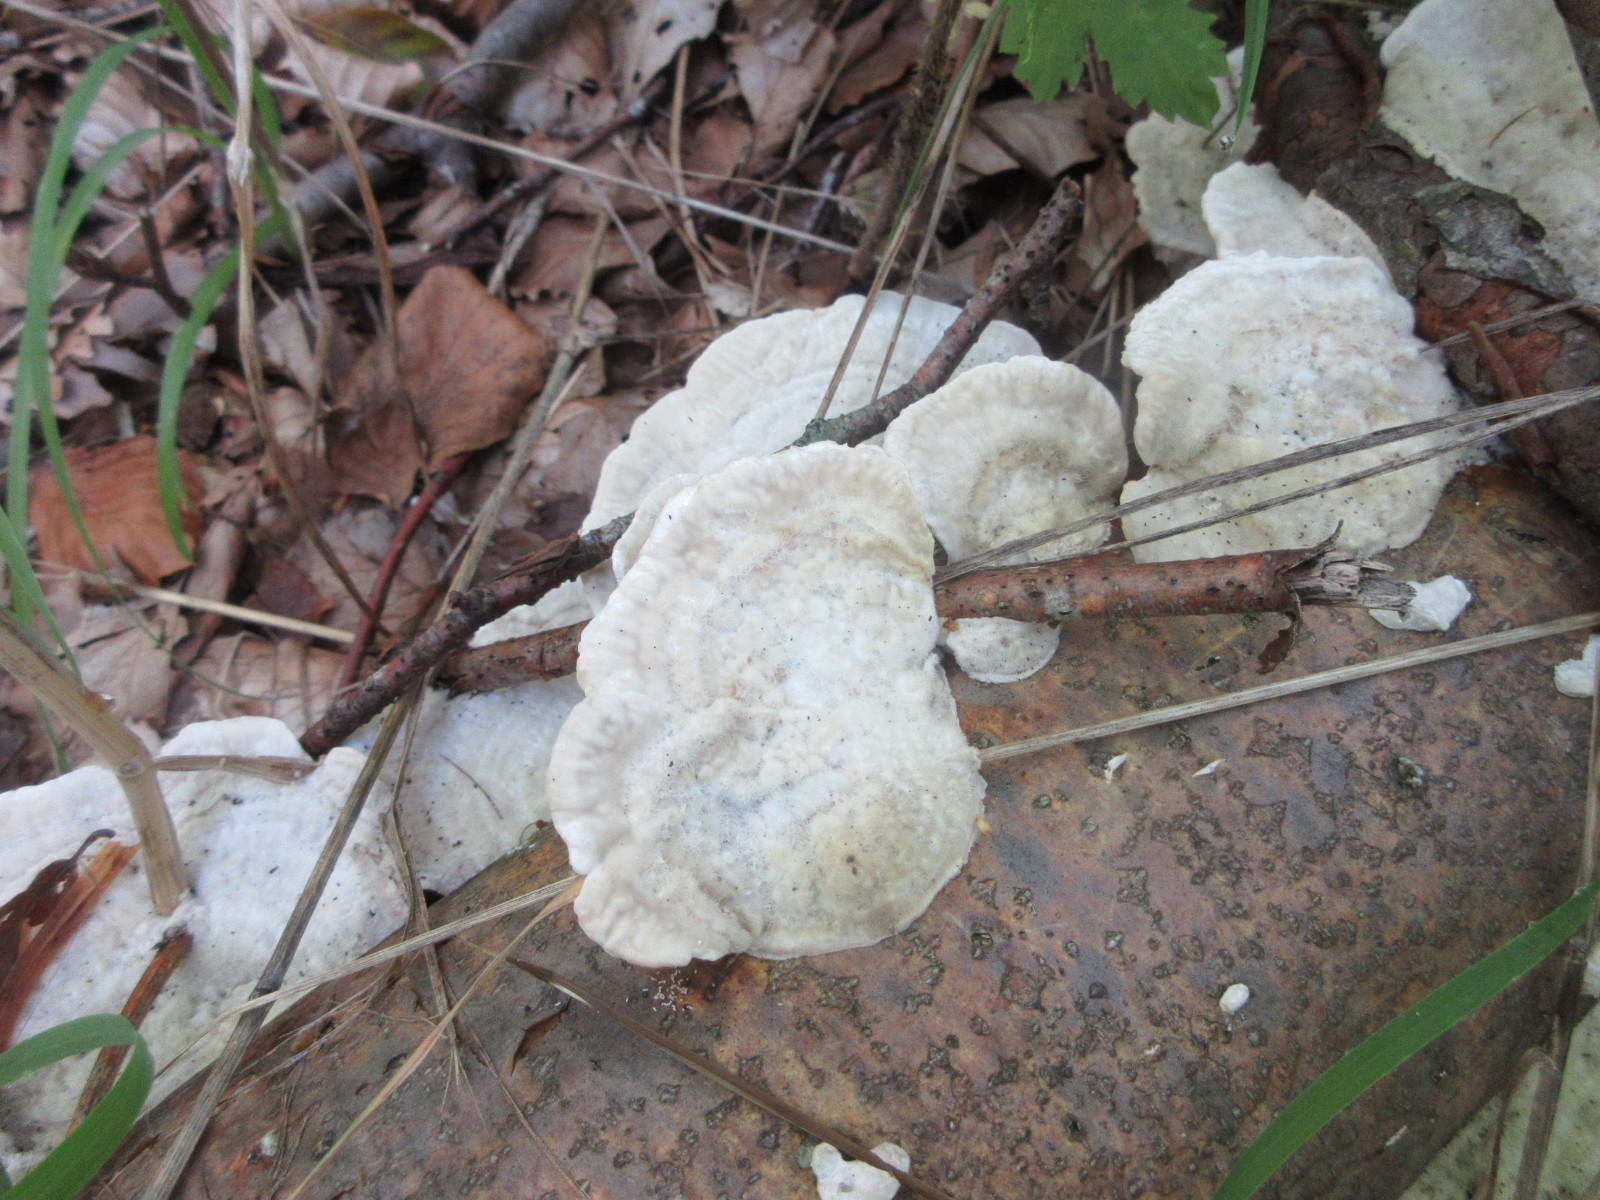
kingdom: Fungi
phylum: Basidiomycota
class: Agaricomycetes
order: Polyporales
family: Polyporaceae
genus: Trametes
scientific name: Trametes hirsuta
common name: håret læderporesvamp
